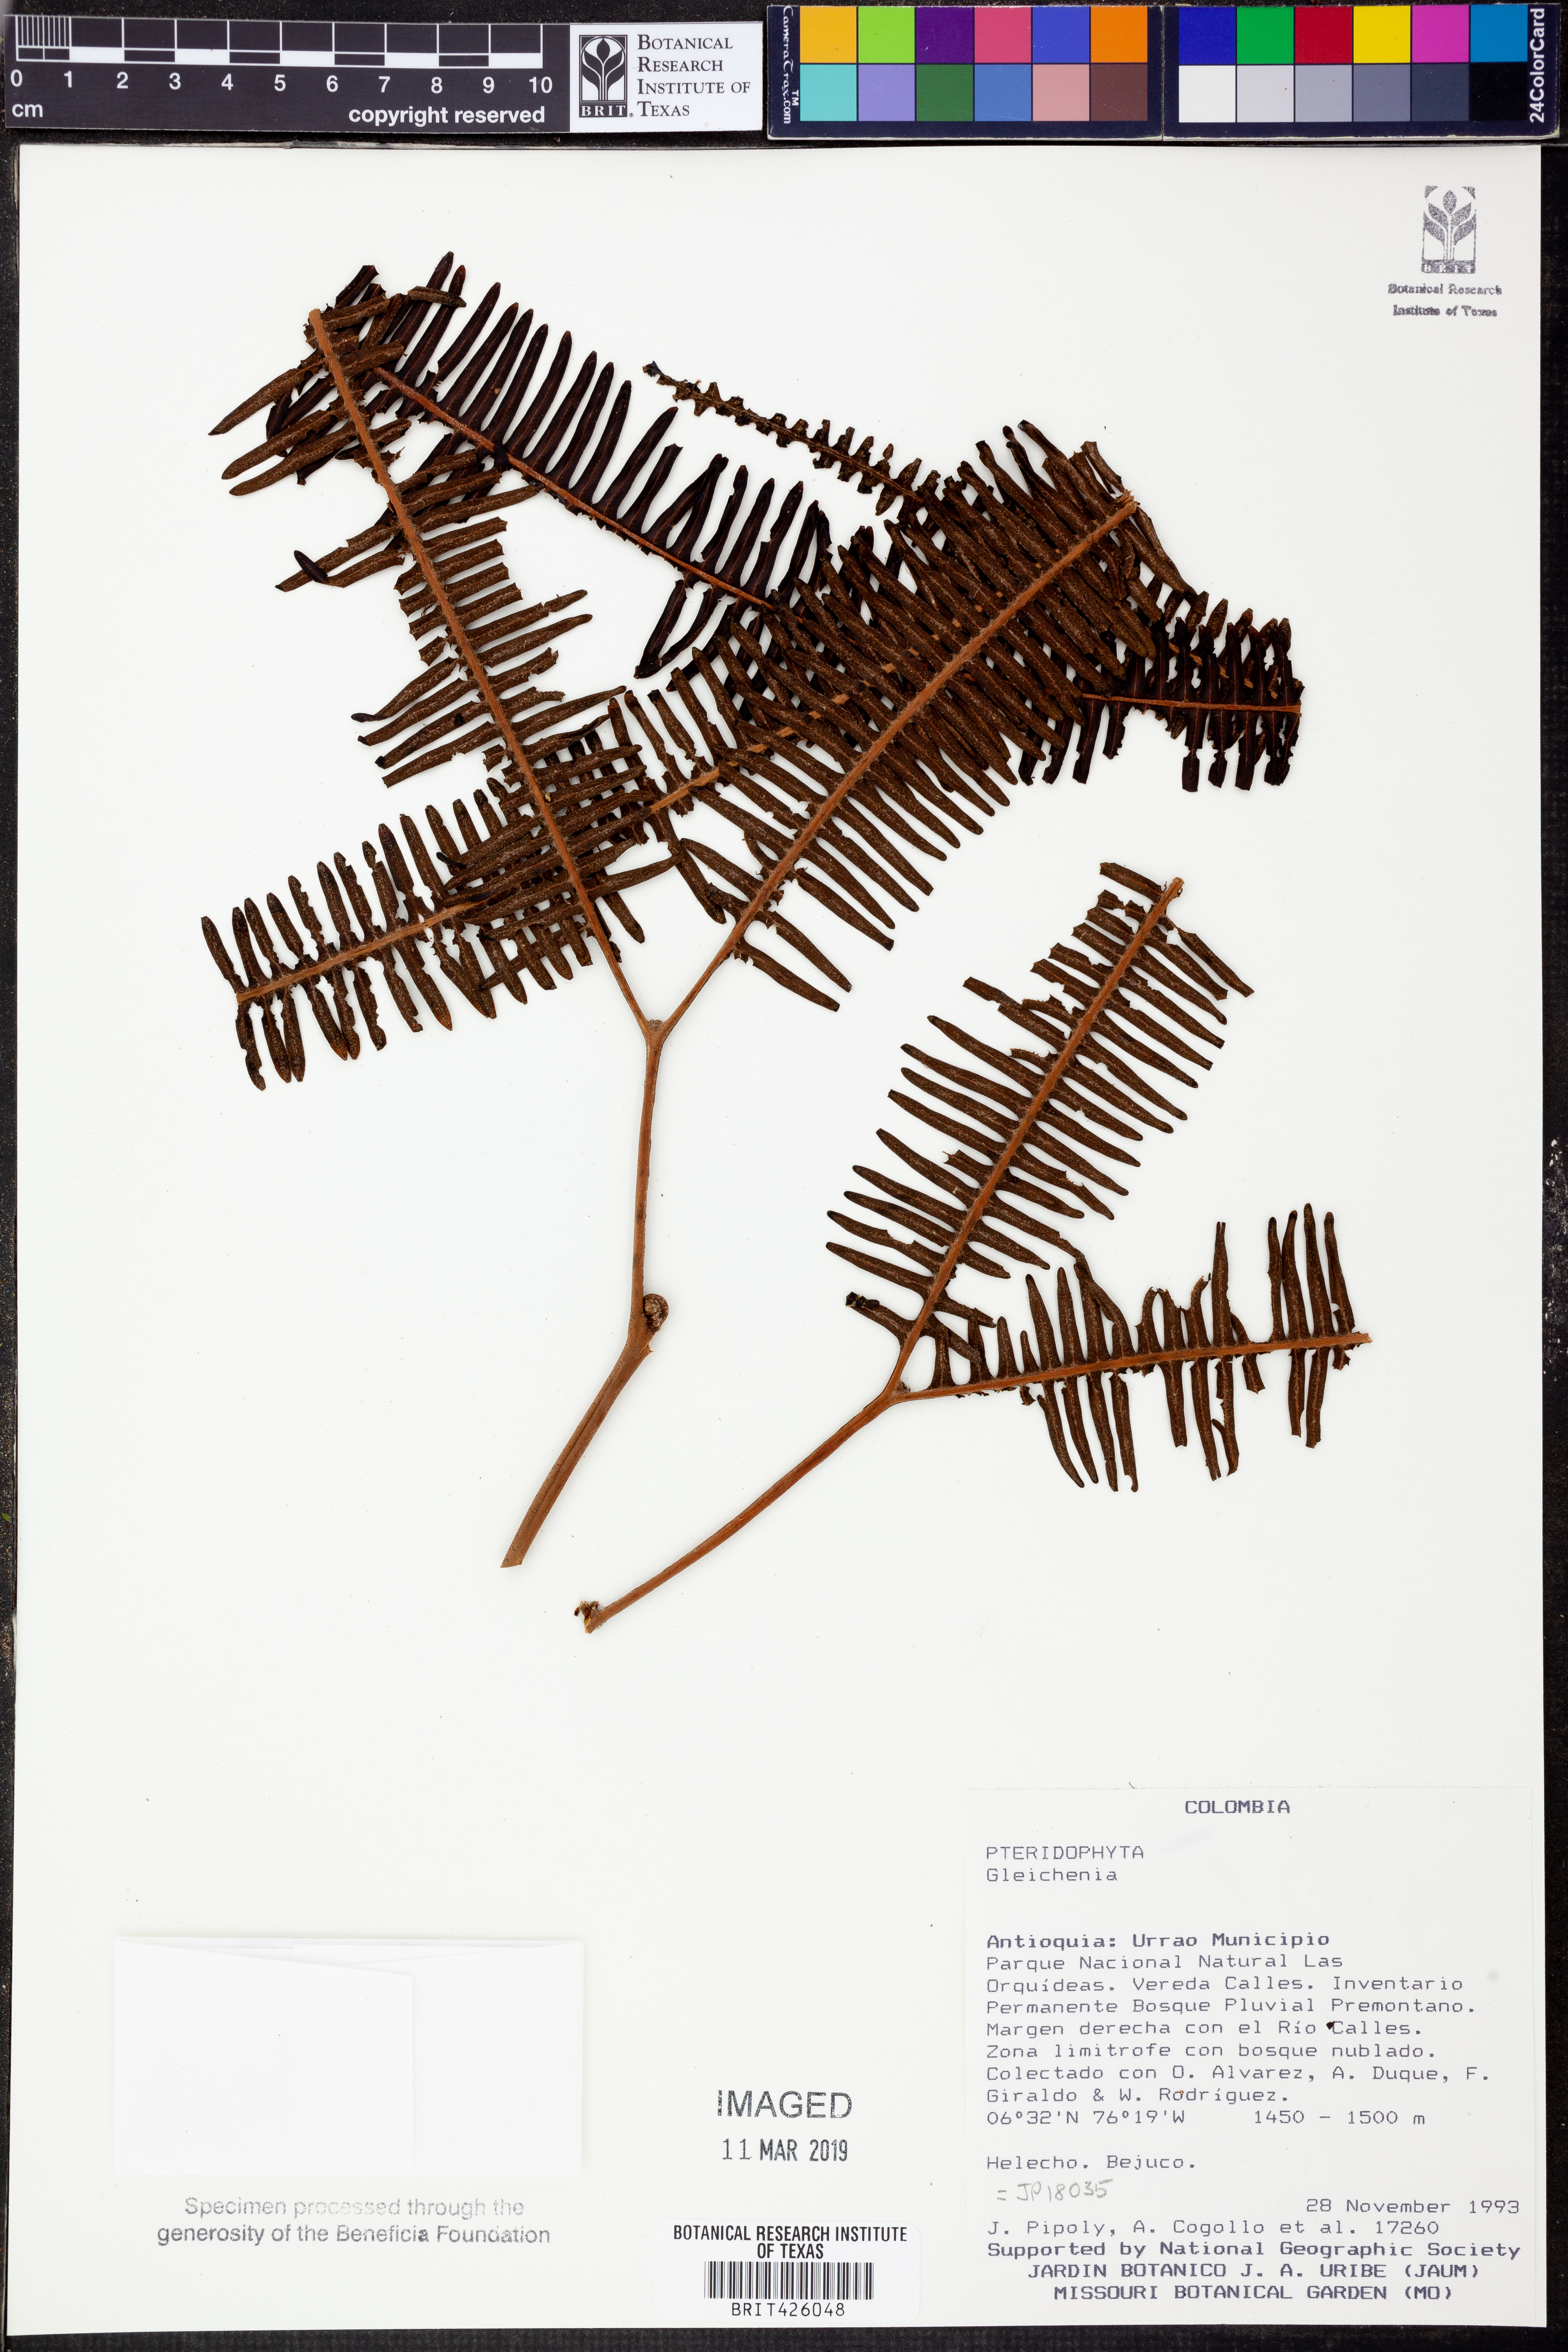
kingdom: Plantae
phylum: Tracheophyta
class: Polypodiopsida
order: Gleicheniales
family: Gleicheniaceae
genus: Gleichenia
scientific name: Gleichenia
